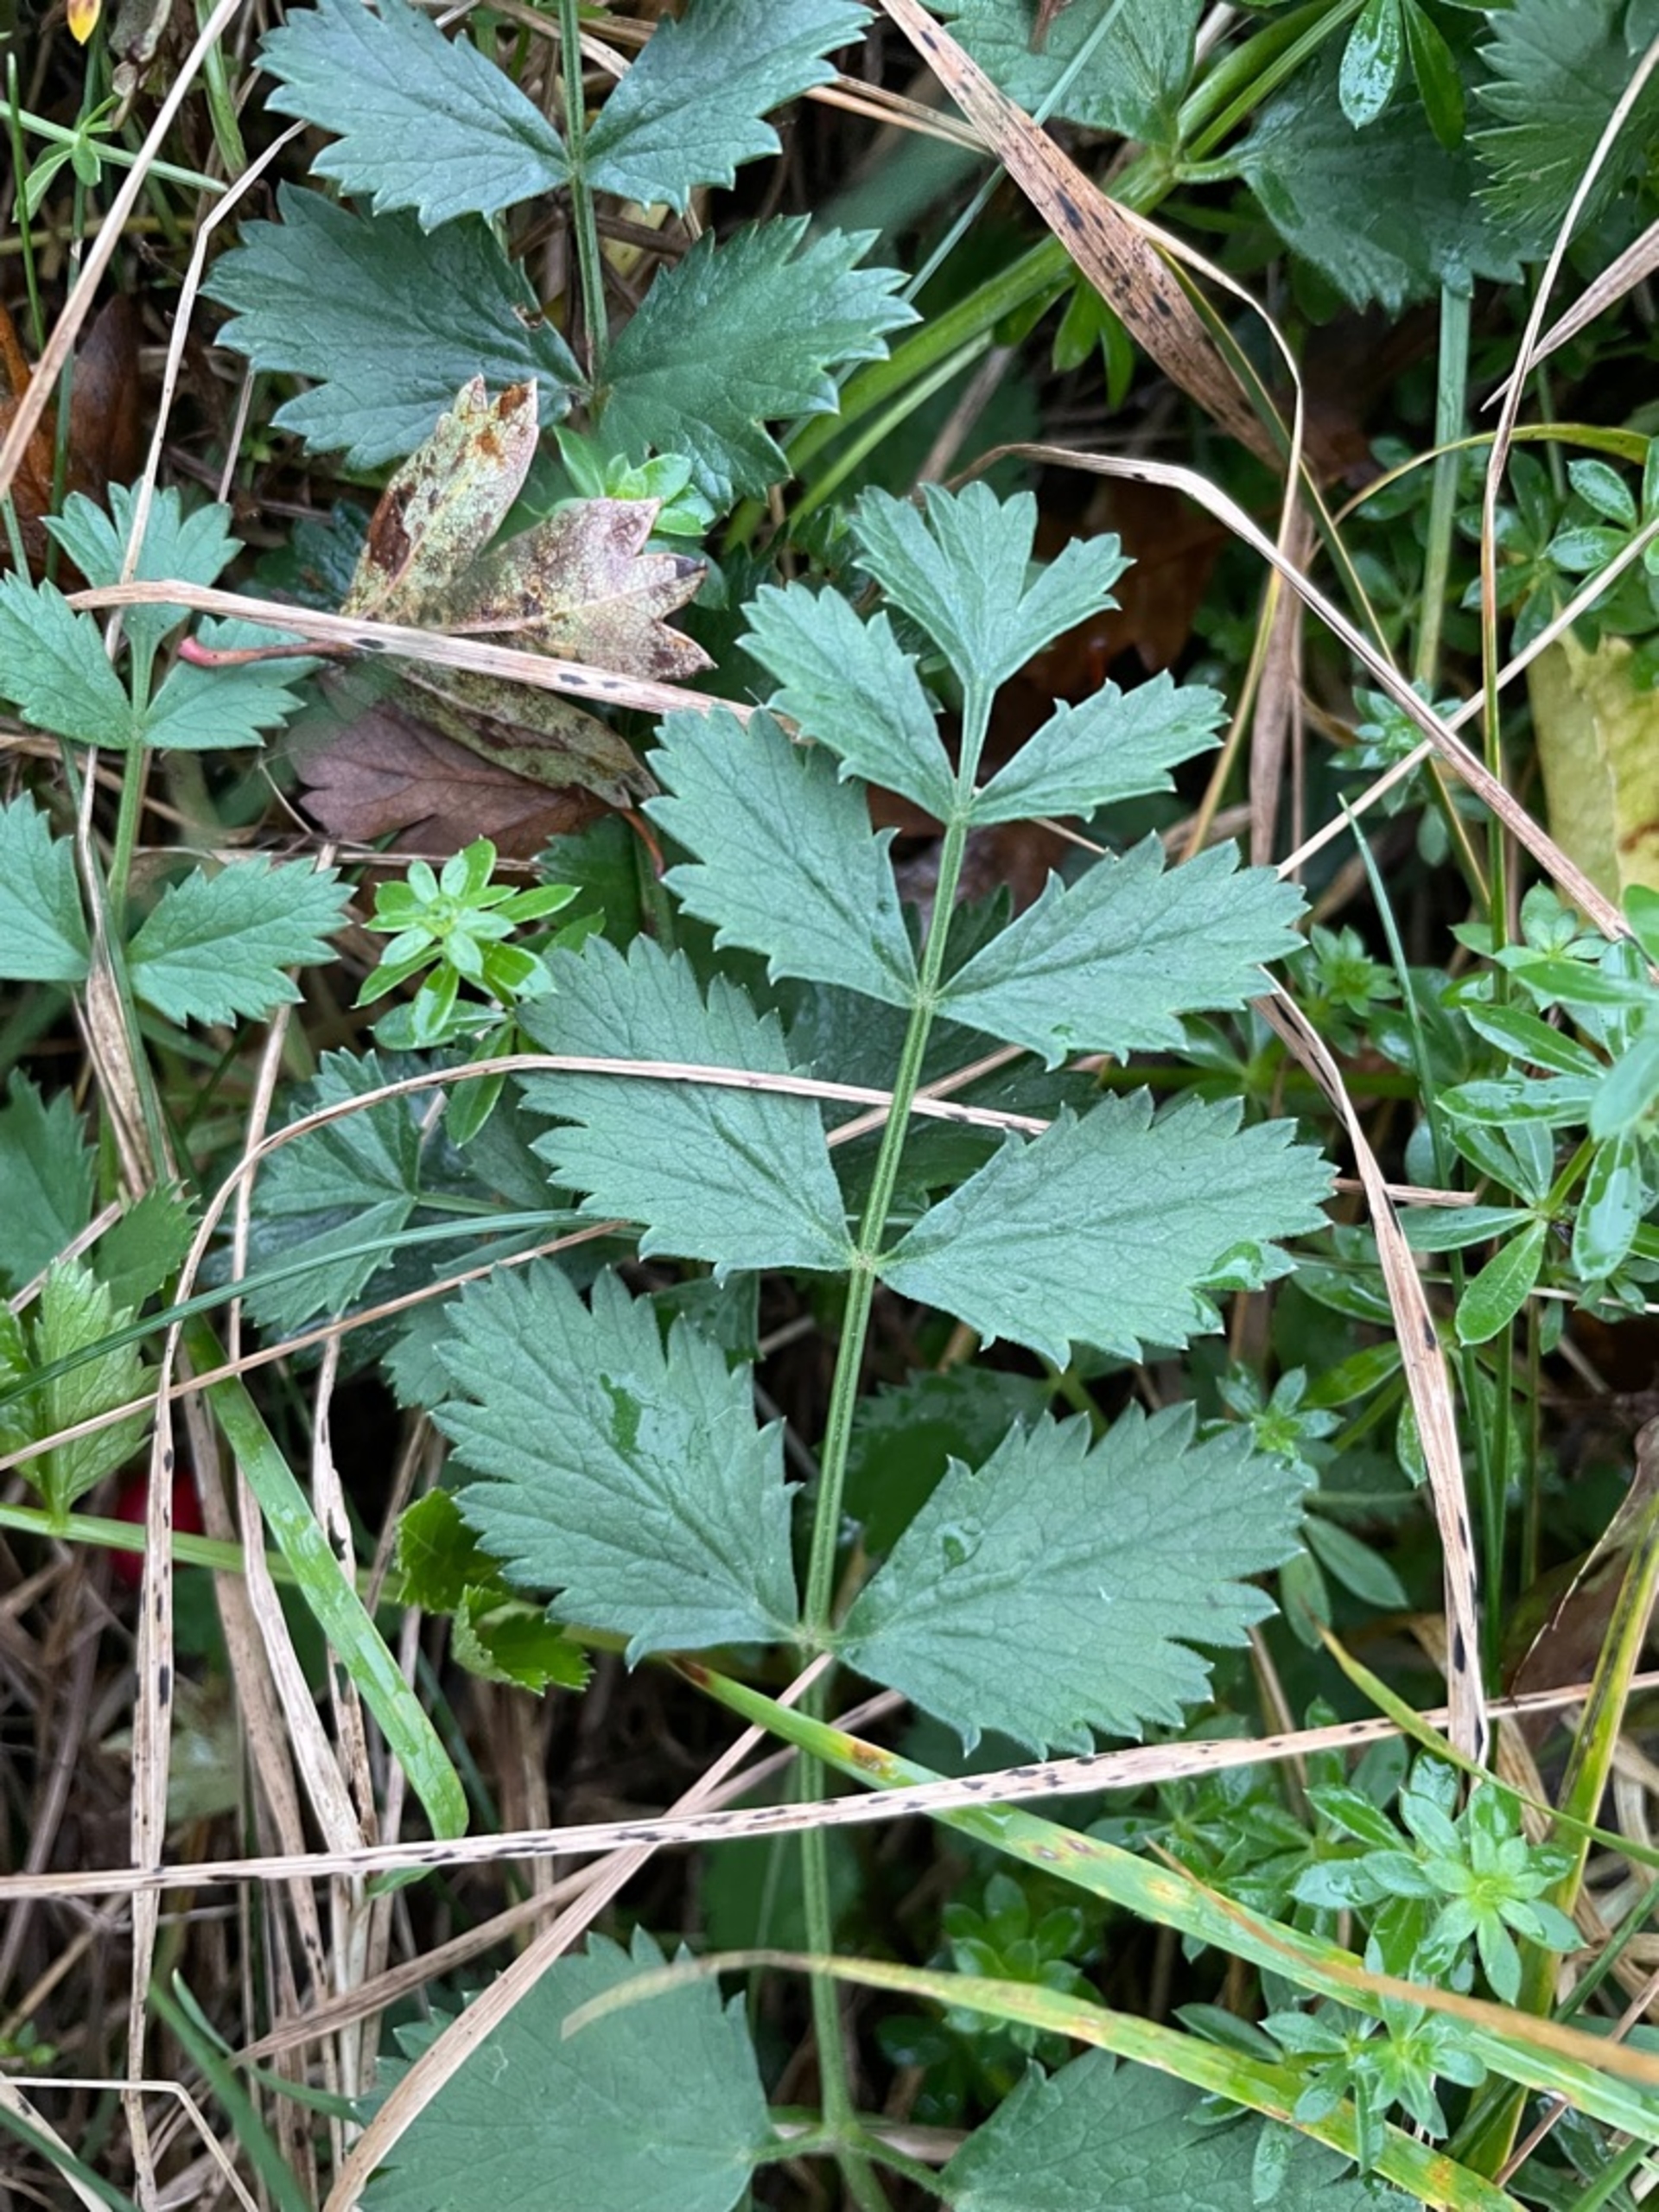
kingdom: Plantae
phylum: Tracheophyta
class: Magnoliopsida
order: Apiales
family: Apiaceae
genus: Pimpinella
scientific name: Pimpinella saxifraga
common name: Almindelig pimpinelle
